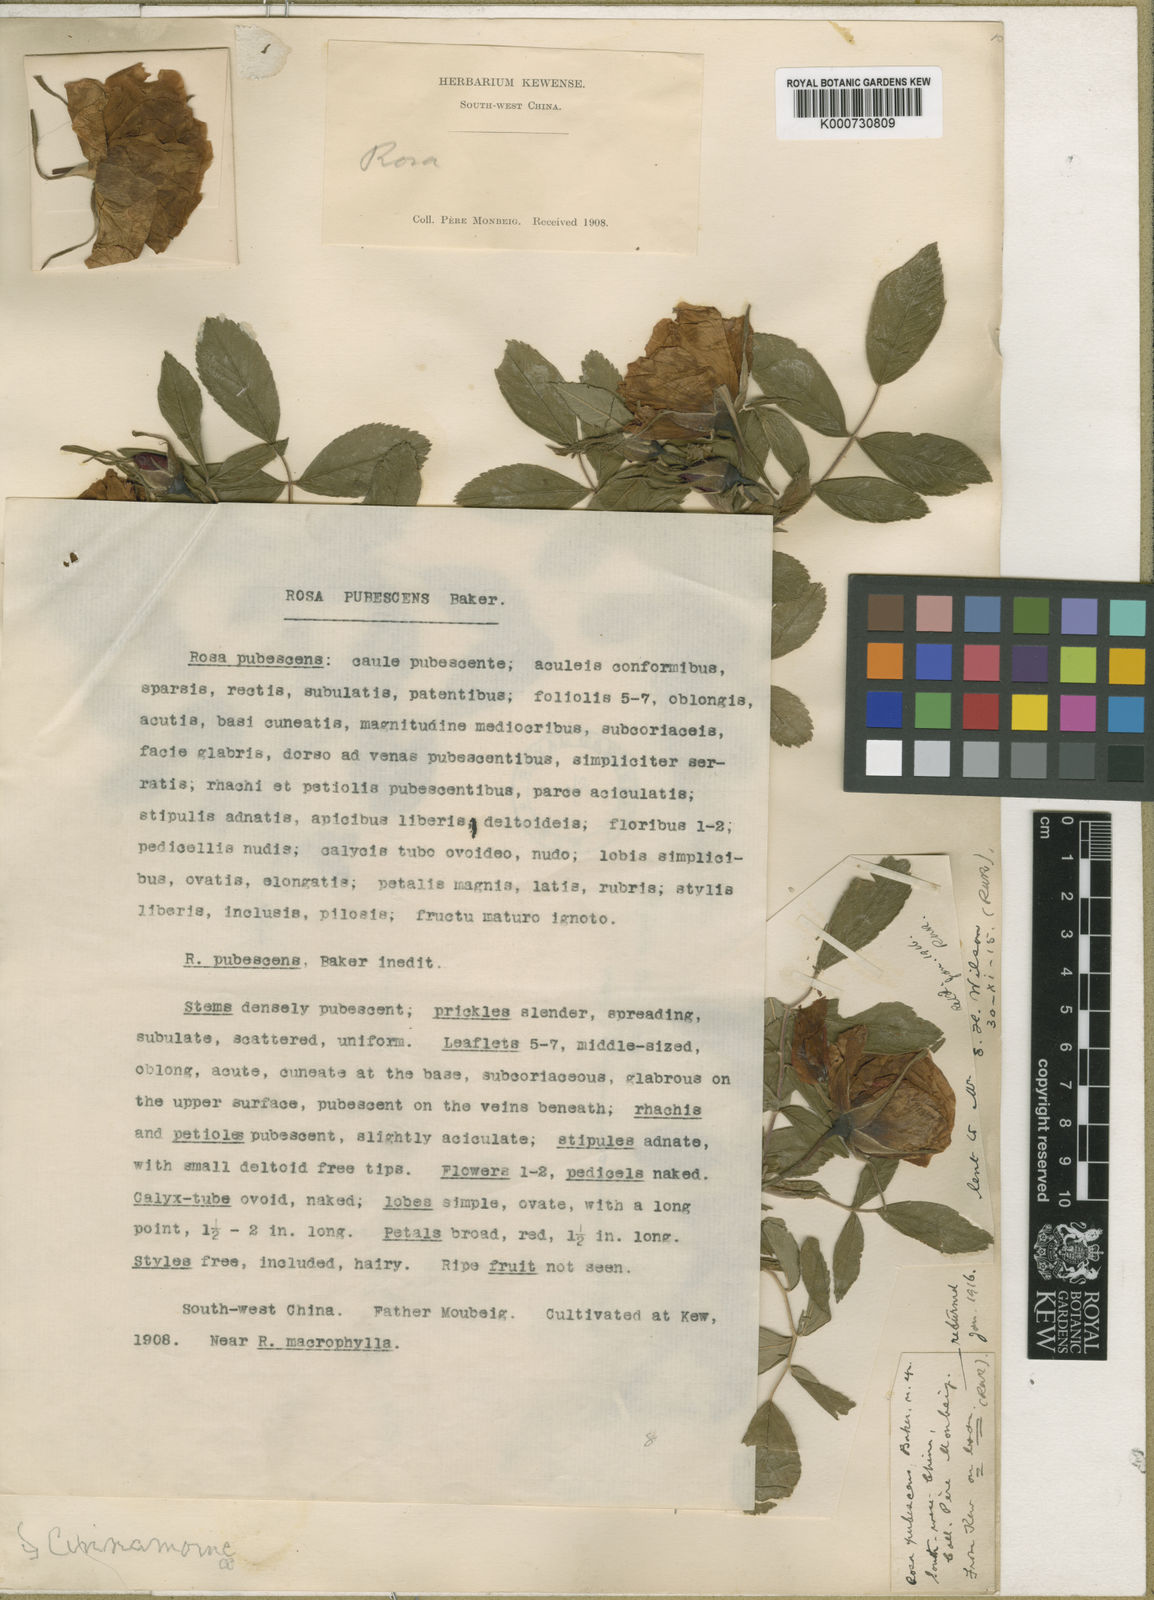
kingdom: Plantae
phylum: Tracheophyta
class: Magnoliopsida
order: Rosales
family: Rosaceae
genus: Rosa
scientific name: Rosa rugosa
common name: Japanese rose
